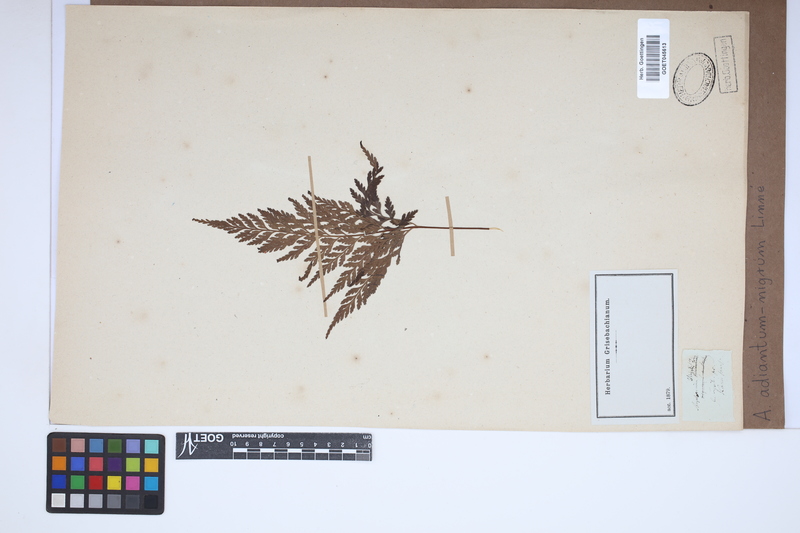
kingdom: Plantae
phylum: Tracheophyta
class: Polypodiopsida
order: Polypodiales
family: Aspleniaceae
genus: Asplenium
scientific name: Asplenium adiantum-nigrum
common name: Black spleenwort
